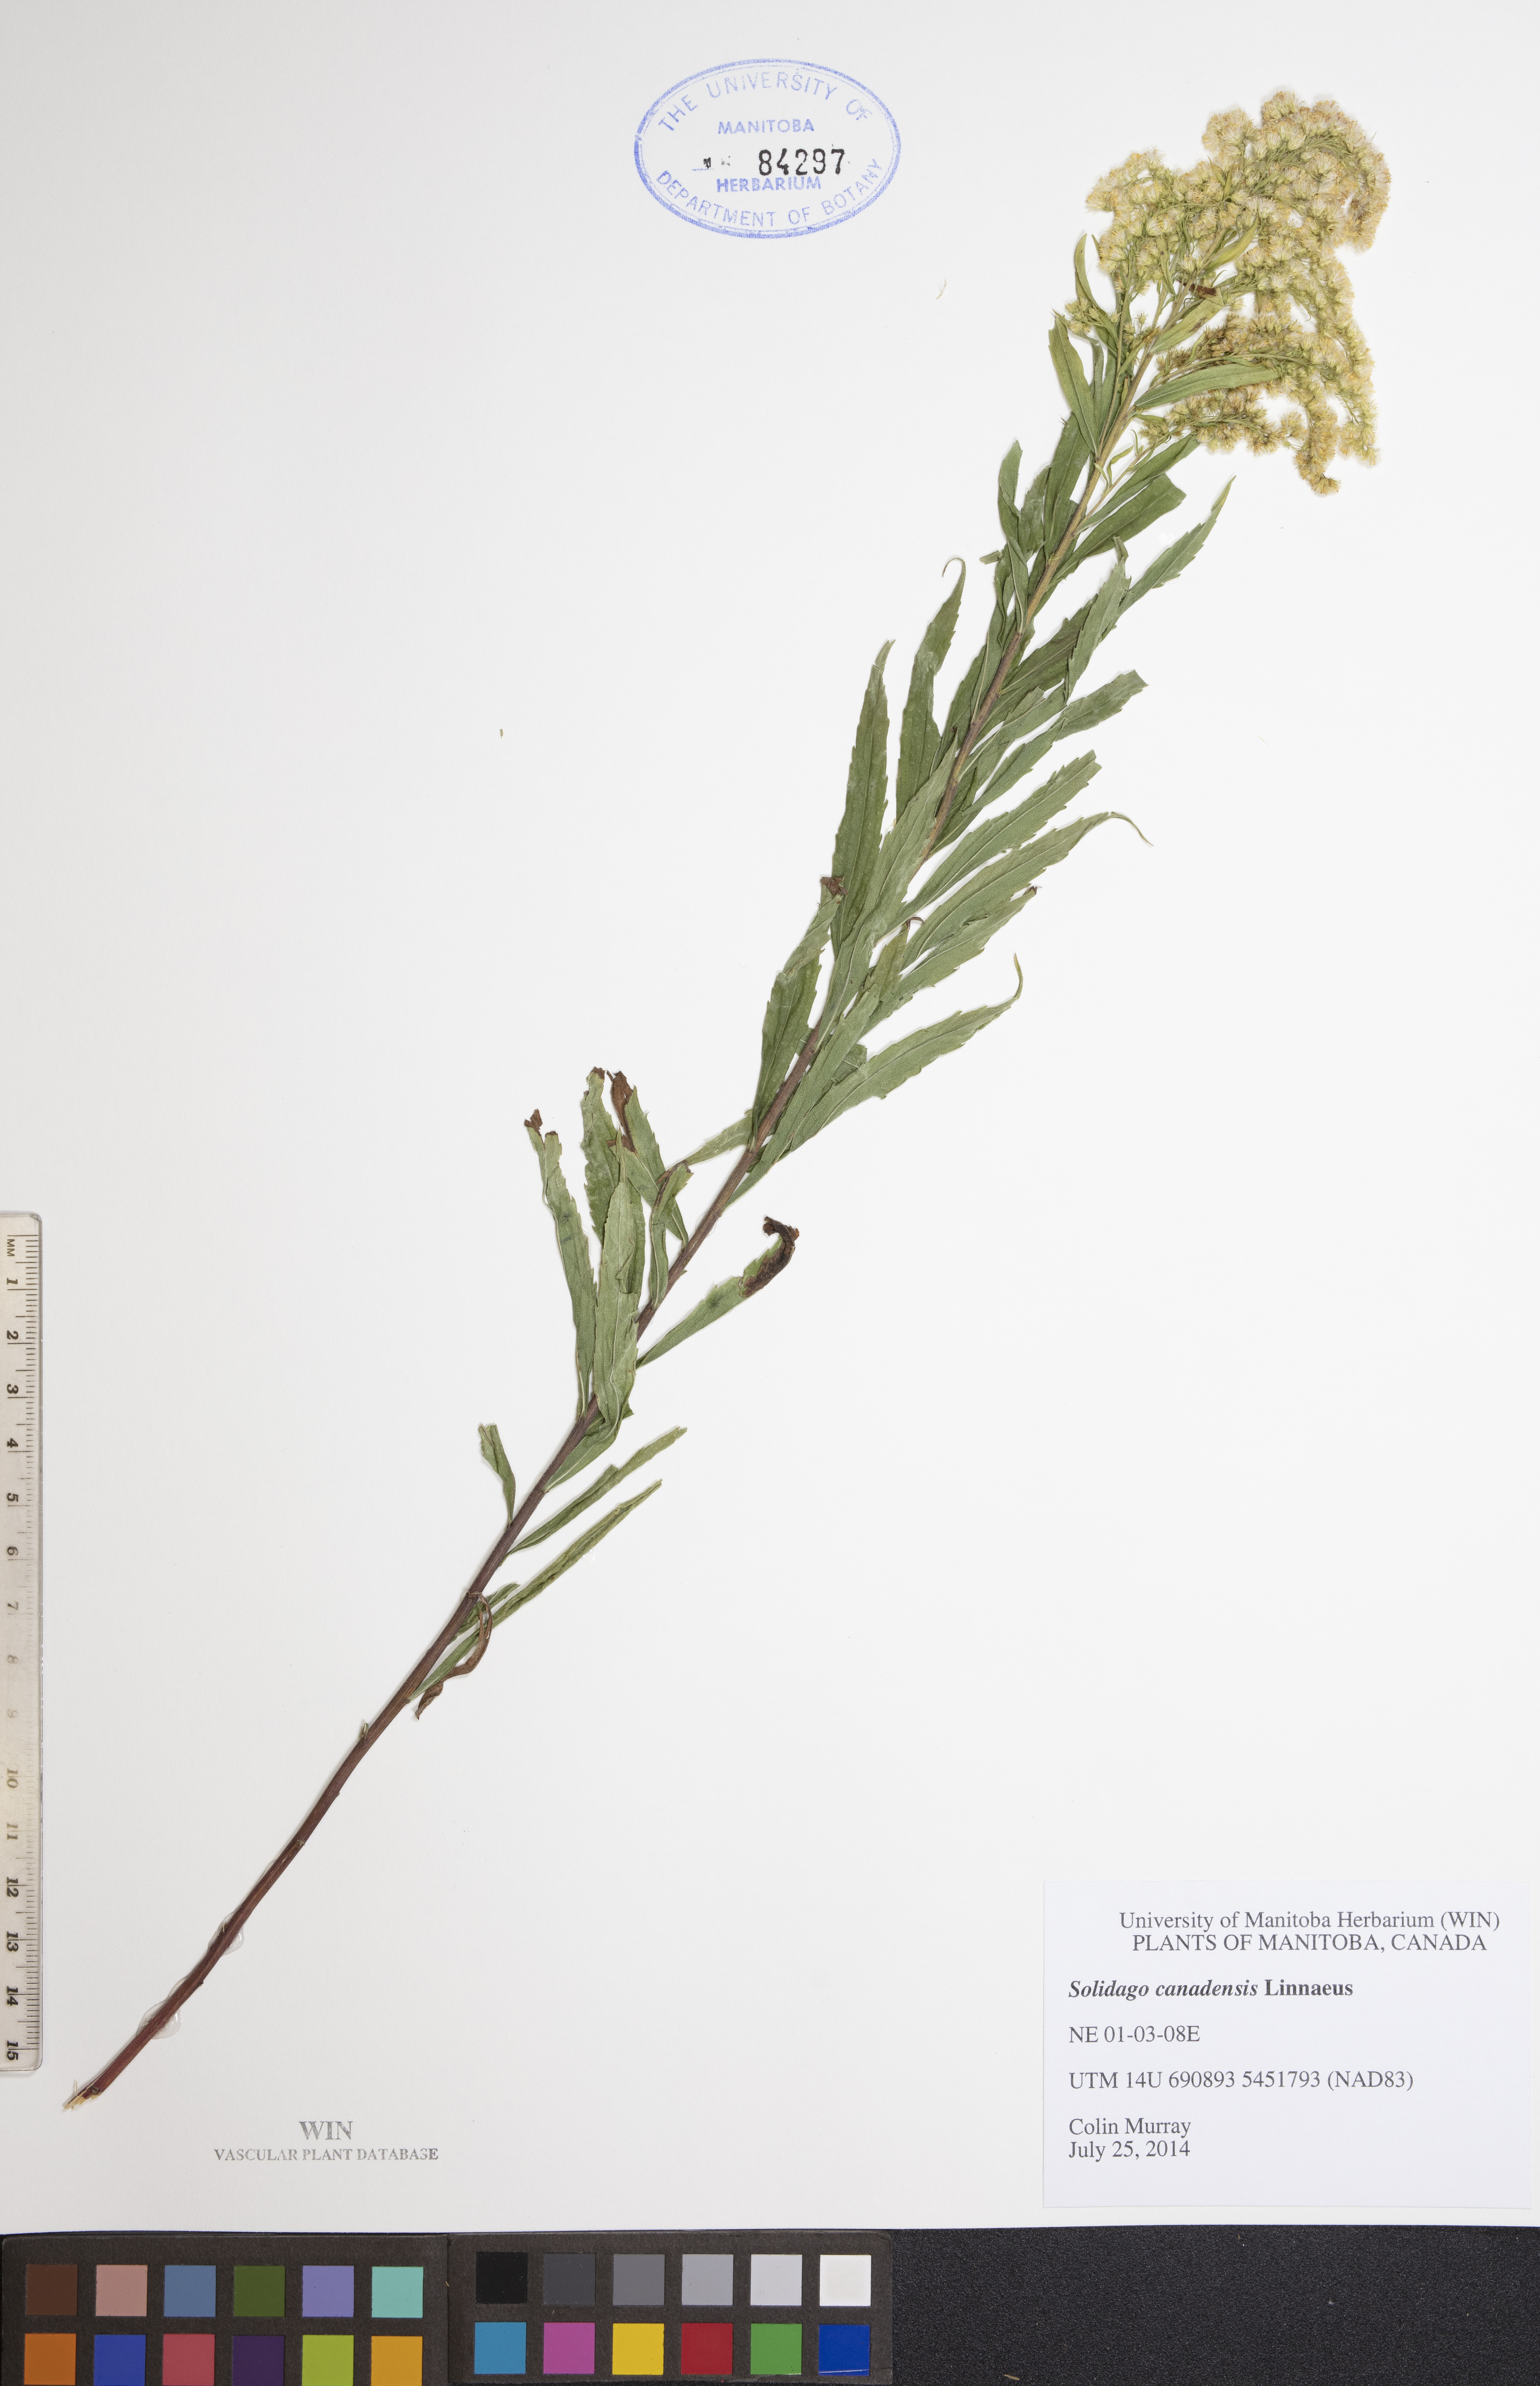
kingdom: Plantae
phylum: Tracheophyta
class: Magnoliopsida
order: Asterales
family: Asteraceae
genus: Solidago
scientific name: Solidago canadensis
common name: Canada goldenrod
